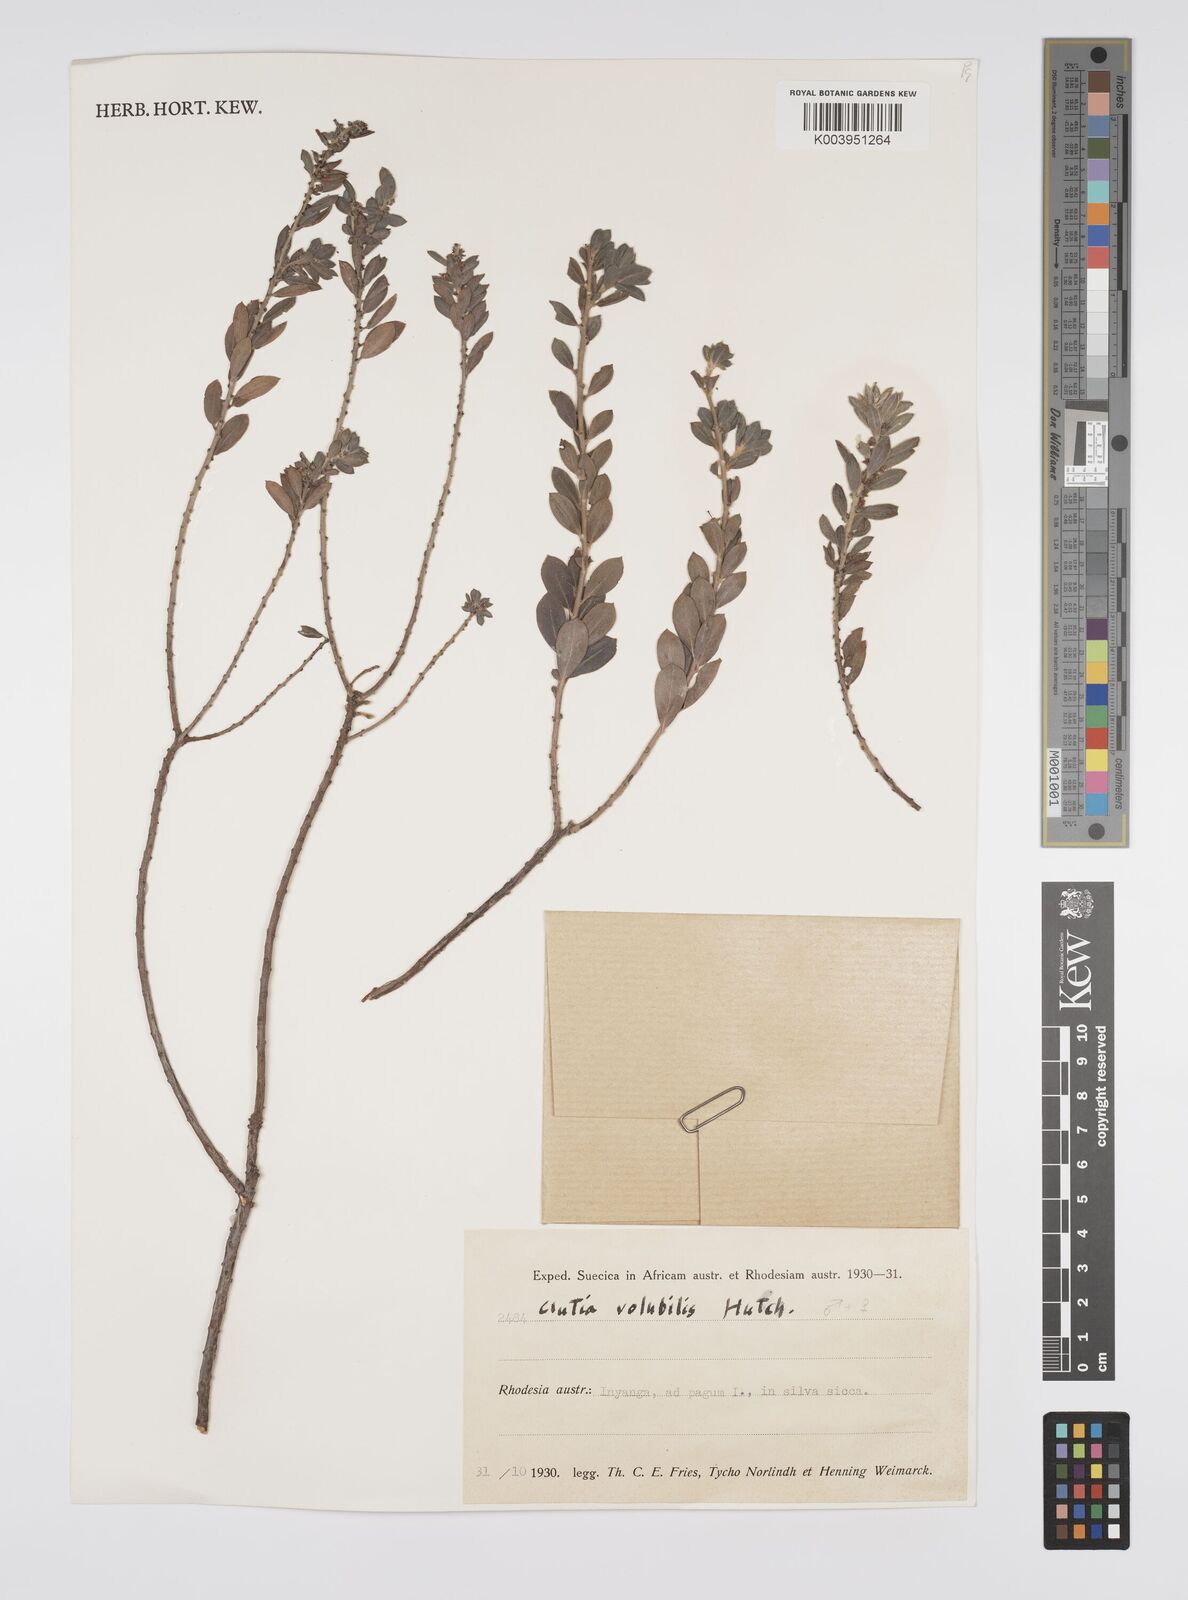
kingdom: Plantae
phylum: Tracheophyta
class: Magnoliopsida
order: Malpighiales
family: Peraceae
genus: Clutia
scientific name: Clutia
